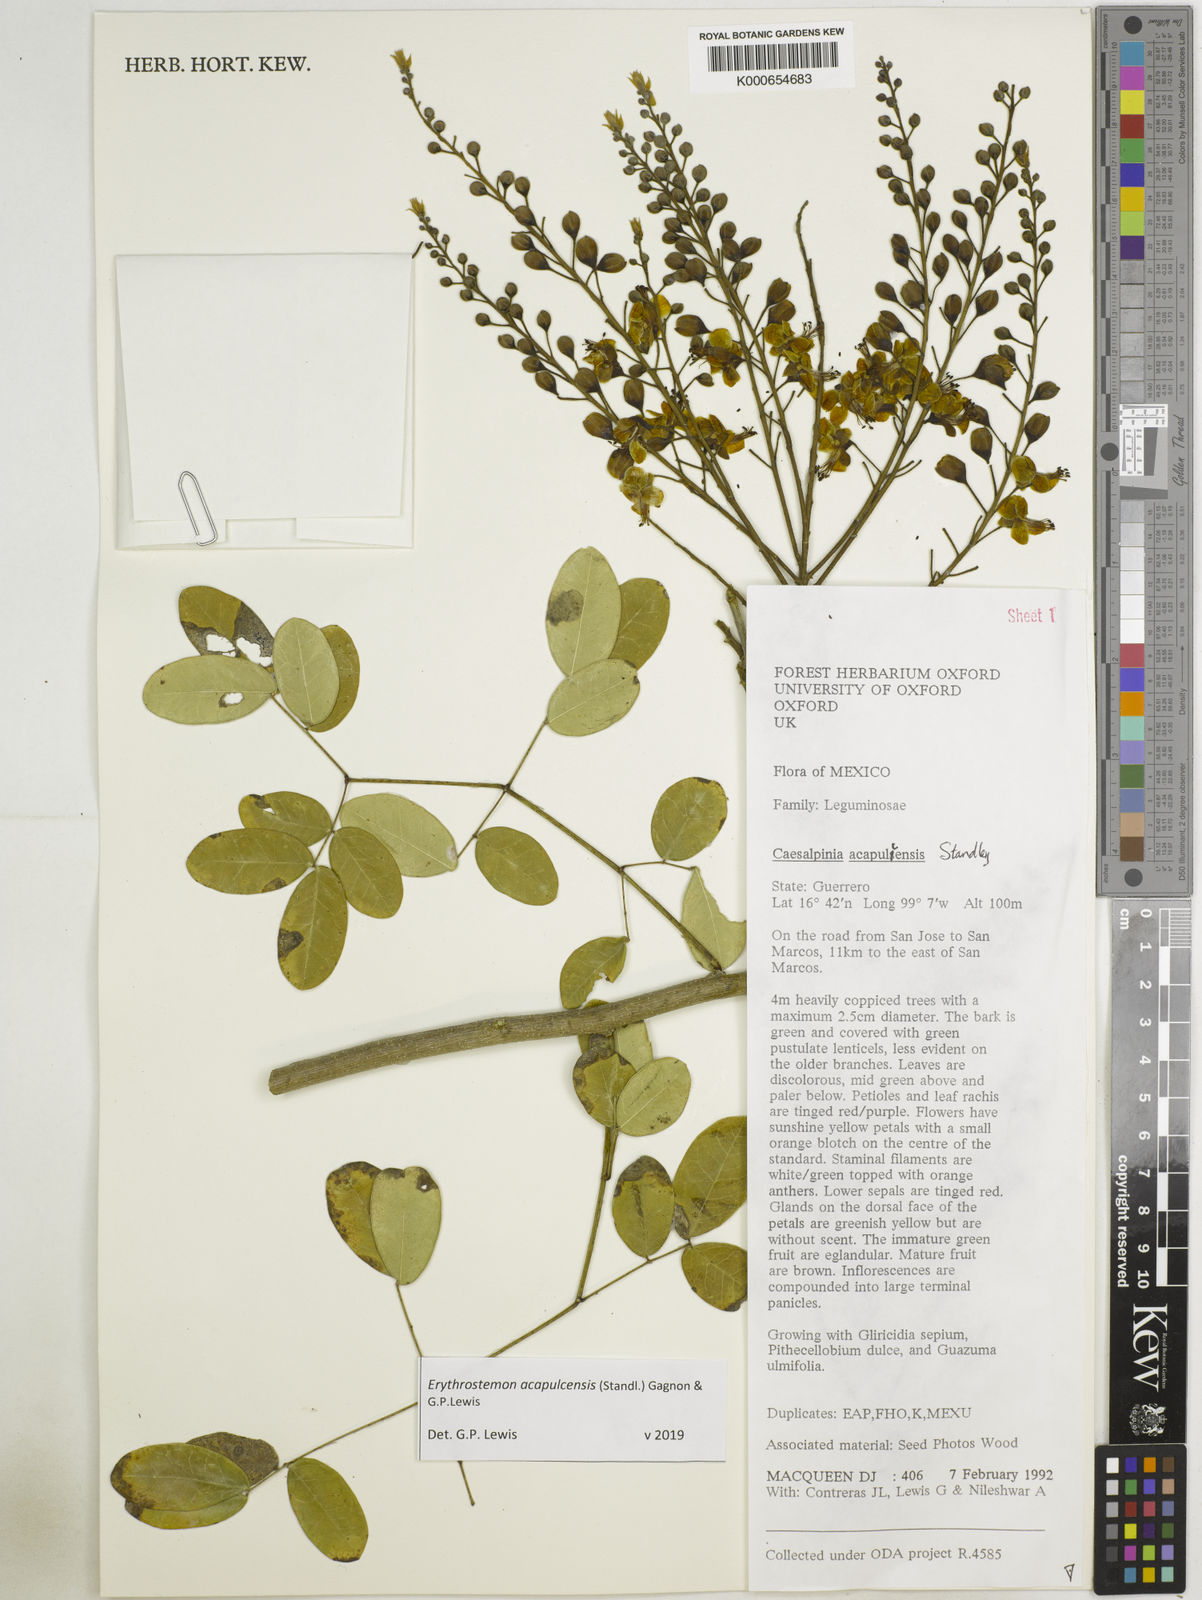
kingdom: Plantae
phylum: Tracheophyta
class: Magnoliopsida
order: Fabales
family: Fabaceae
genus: Erythrostemon
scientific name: Erythrostemon acapulcensis
